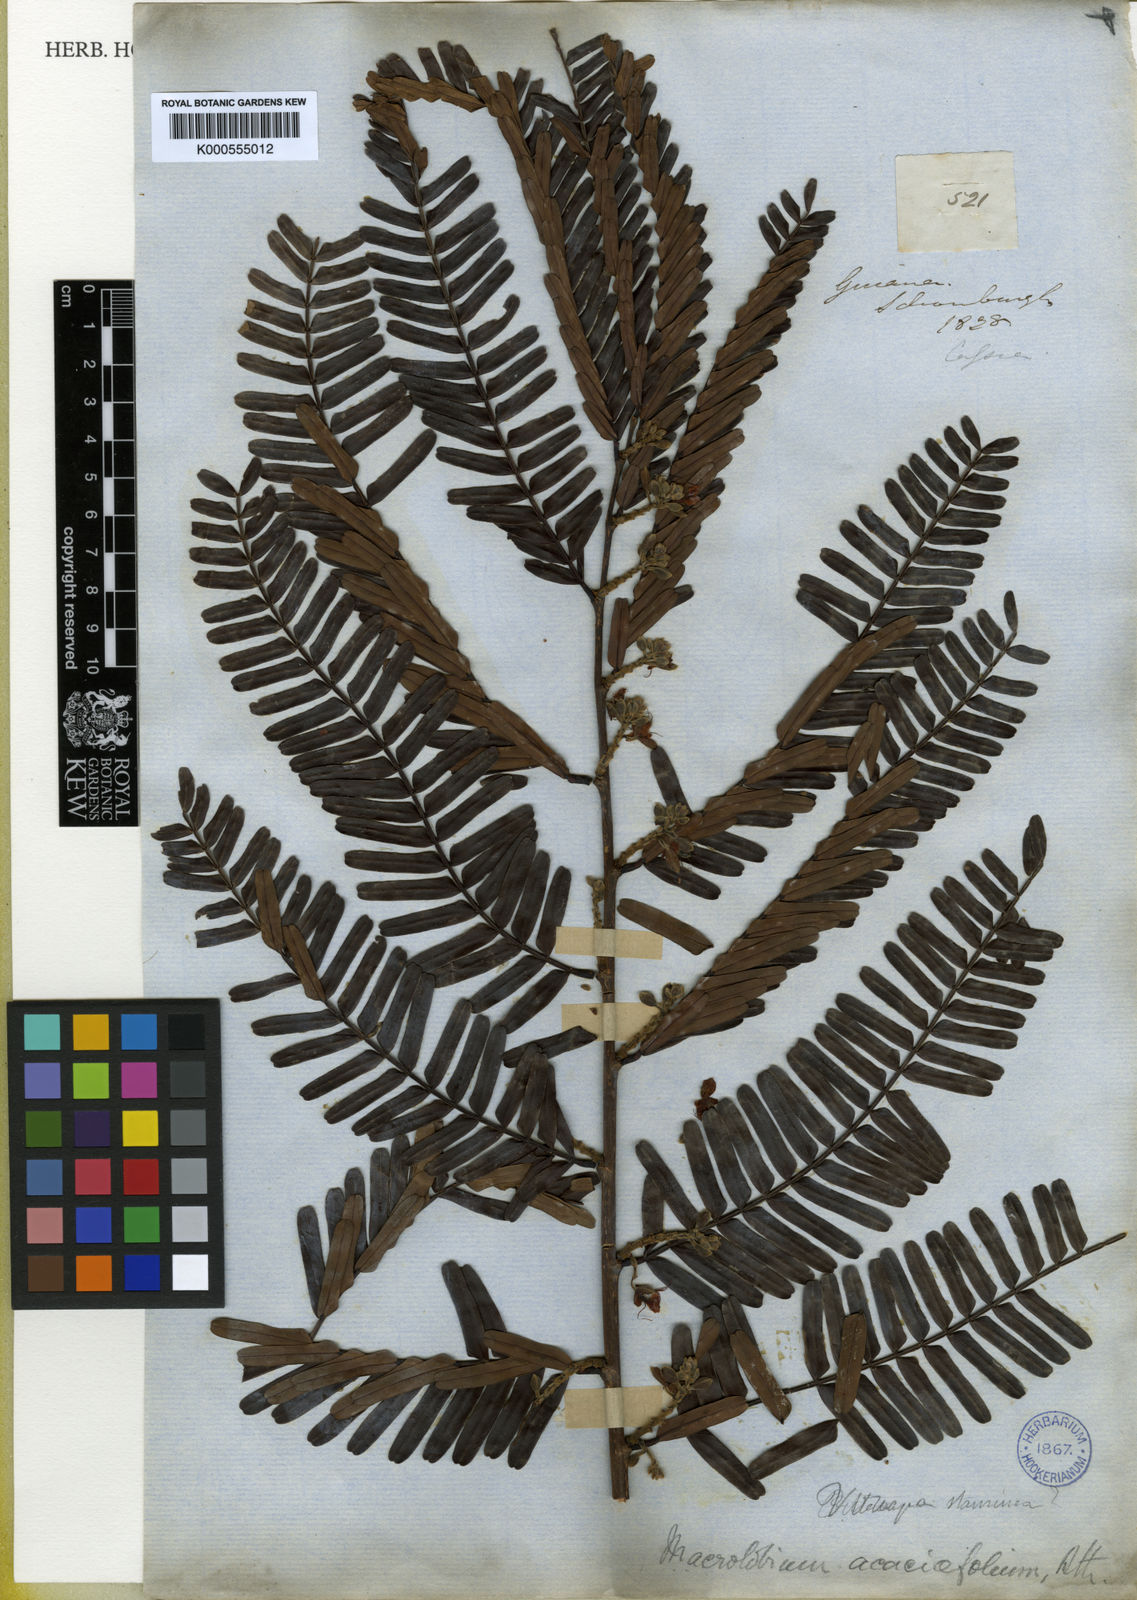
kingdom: Plantae
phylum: Tracheophyta
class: Magnoliopsida
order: Fabales
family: Fabaceae
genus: Macrolobium
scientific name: Macrolobium
